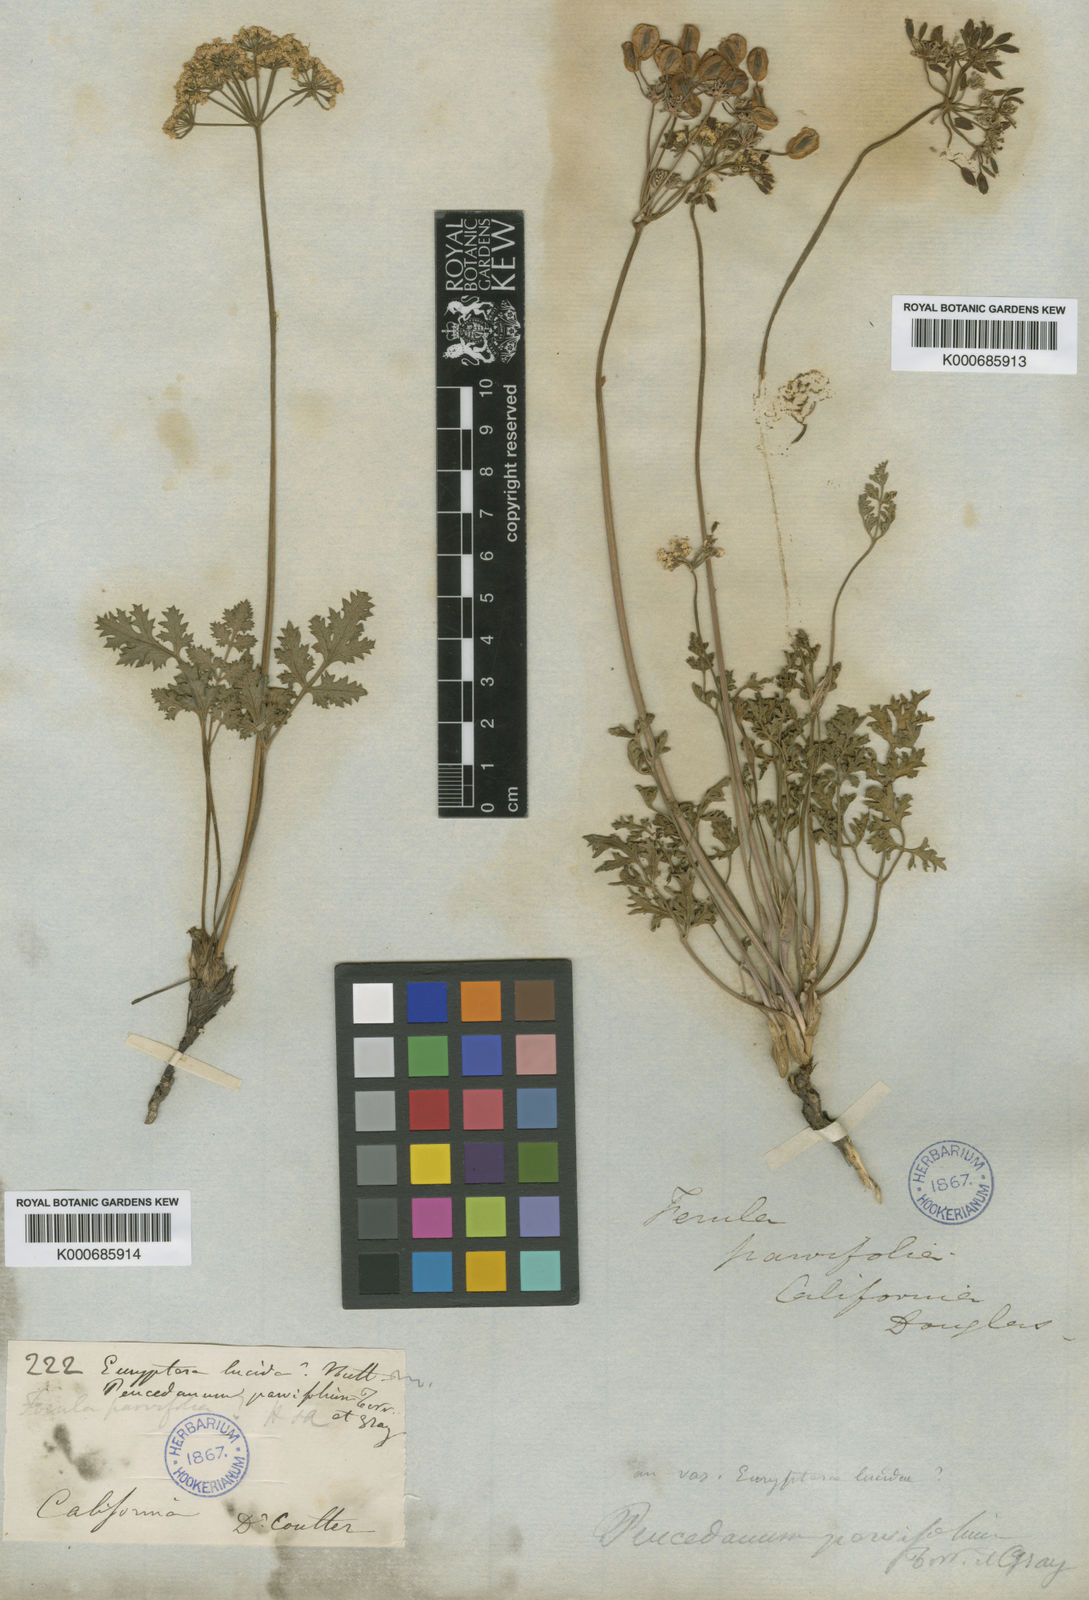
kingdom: Plantae
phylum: Tracheophyta
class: Magnoliopsida
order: Apiales
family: Apiaceae
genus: Lomatium
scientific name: Lomatium parvifolium
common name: Small-leaf lomatium
